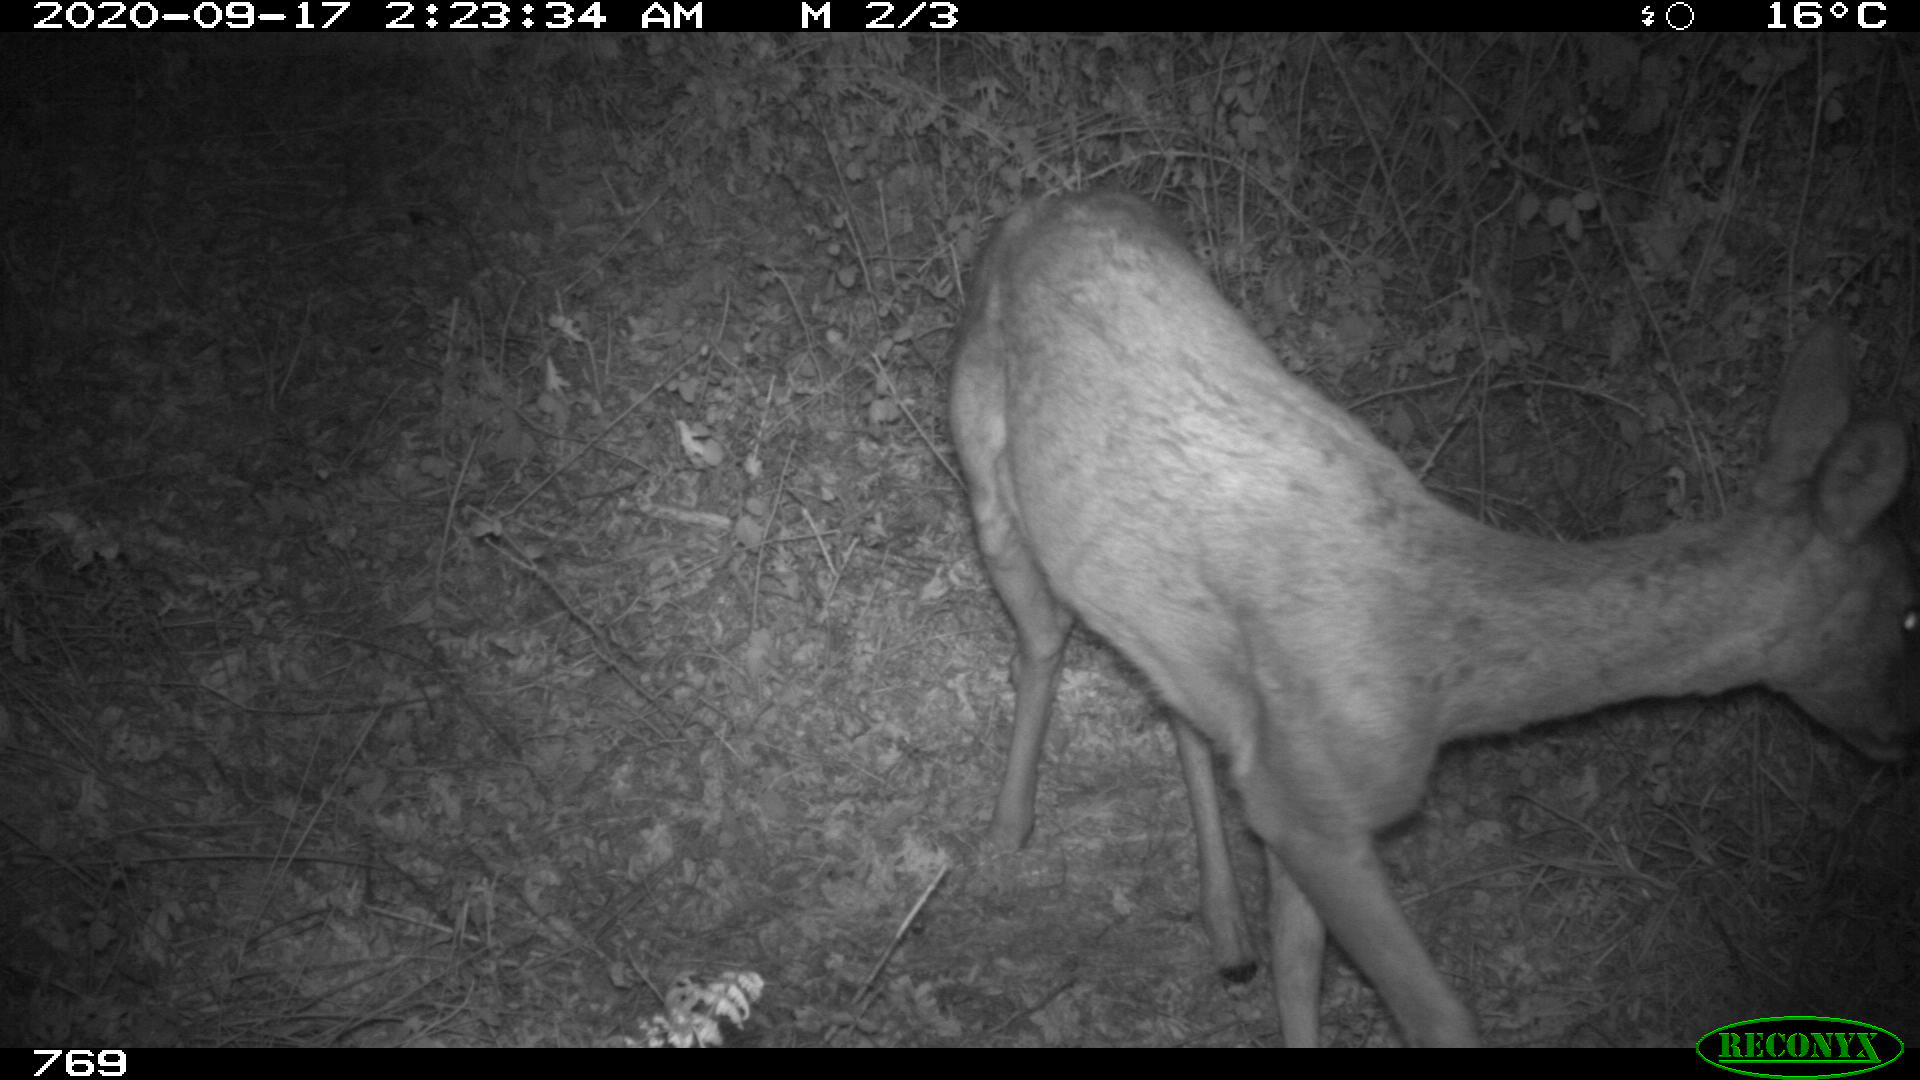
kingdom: Animalia
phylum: Chordata
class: Mammalia
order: Artiodactyla
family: Cervidae
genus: Capreolus
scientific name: Capreolus capreolus
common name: Western roe deer
